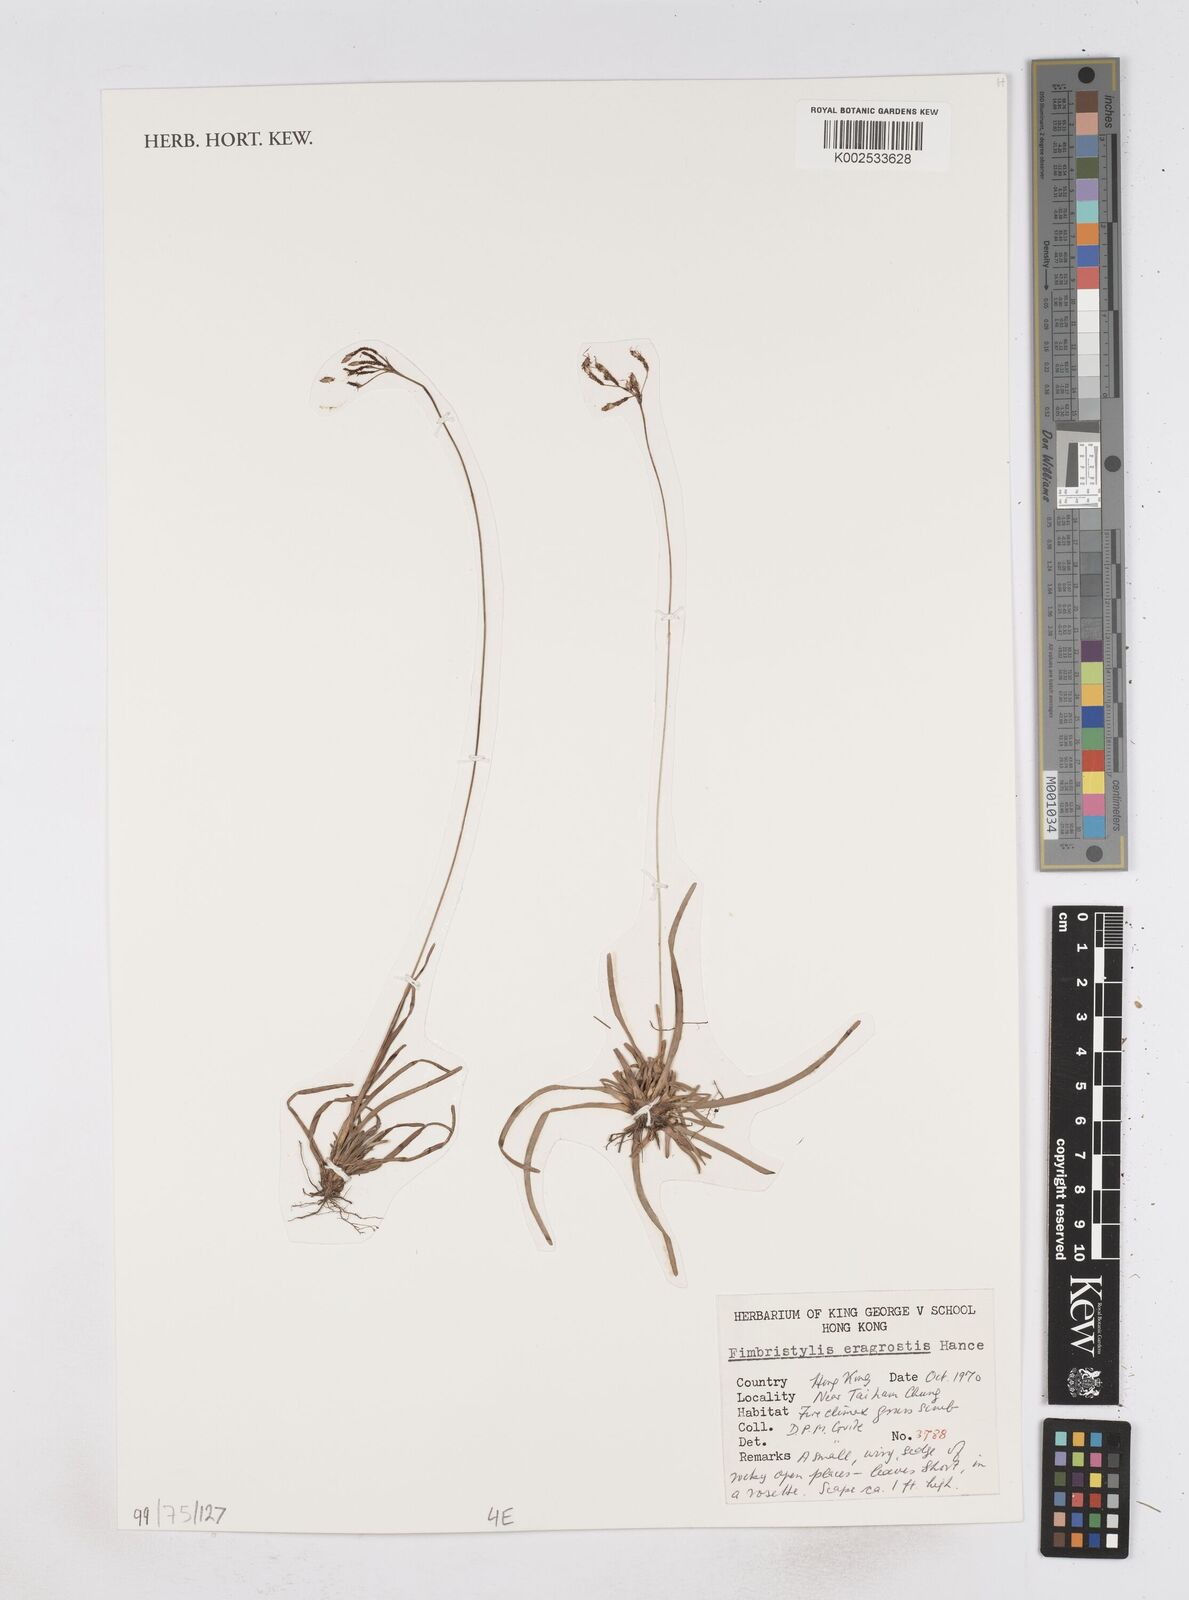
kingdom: Plantae
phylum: Tracheophyta
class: Liliopsida
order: Poales
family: Cyperaceae
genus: Fimbristylis
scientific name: Fimbristylis eragrostis
